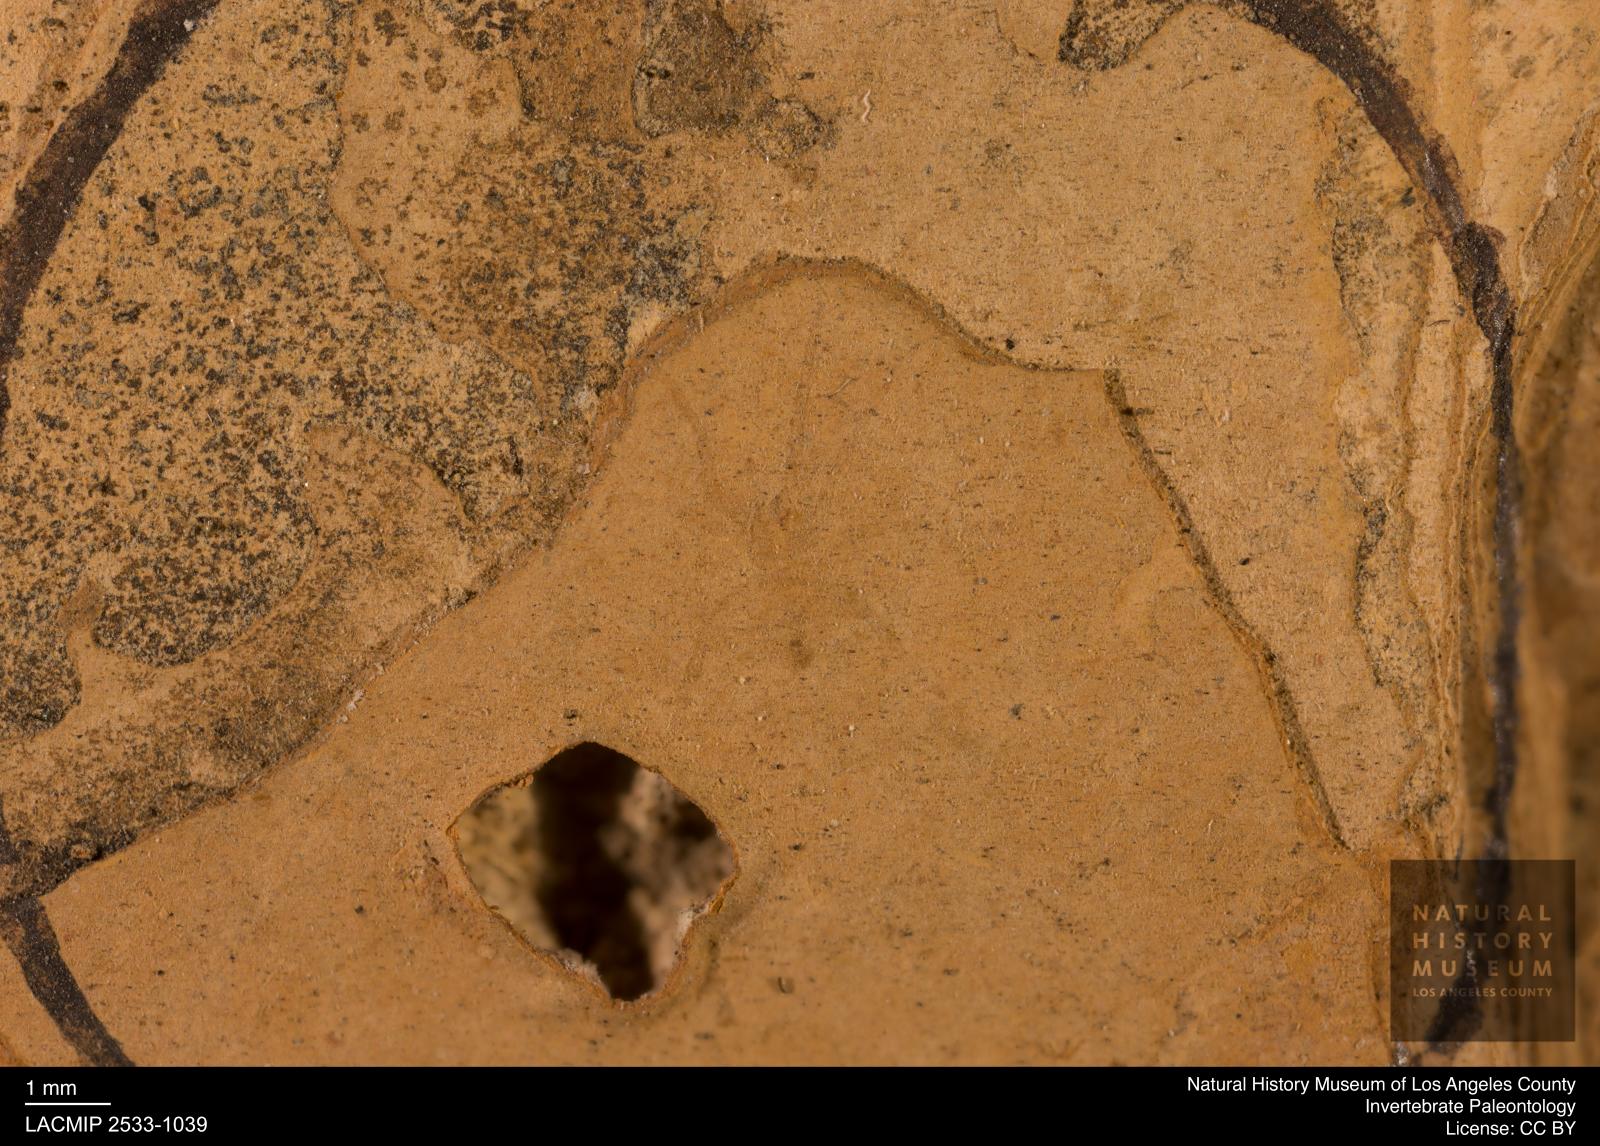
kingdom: Animalia
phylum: Arthropoda
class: Arachnida
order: Araneae
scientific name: Araneae
